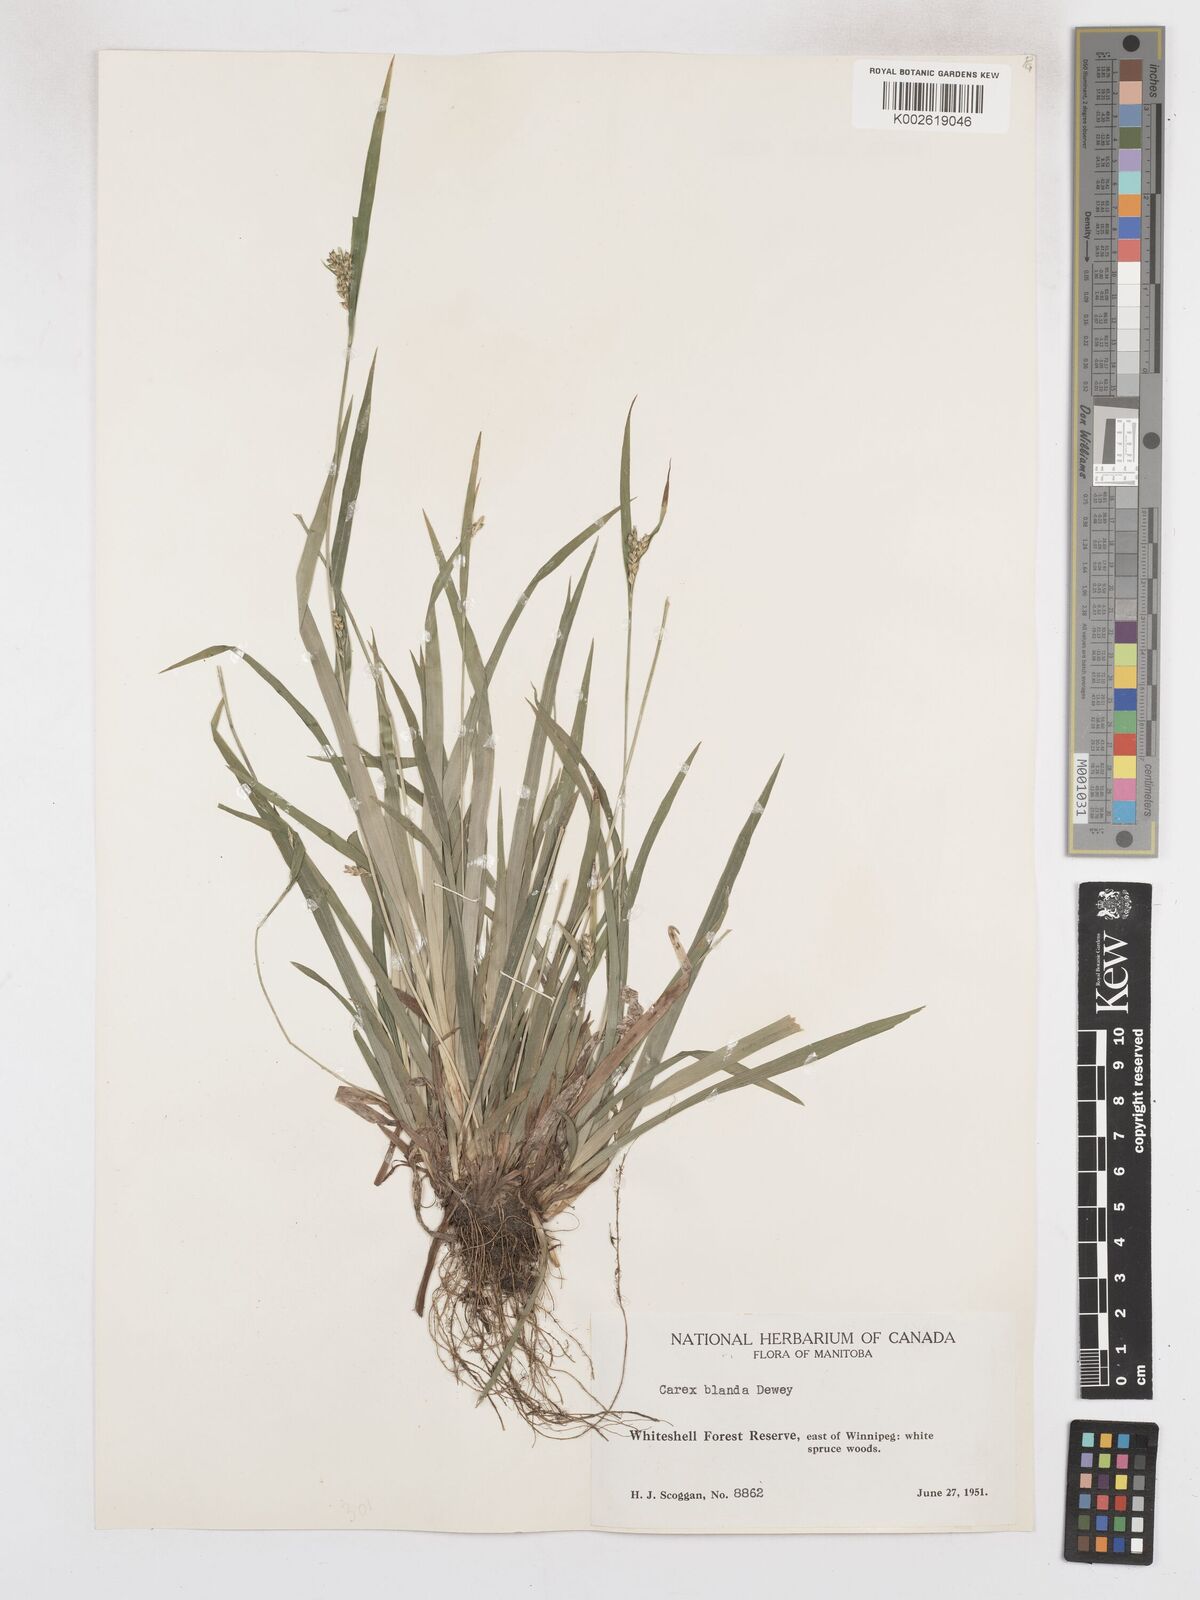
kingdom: Plantae
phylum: Tracheophyta
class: Liliopsida
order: Poales
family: Cyperaceae
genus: Carex
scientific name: Carex blanda
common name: Bland sedge
